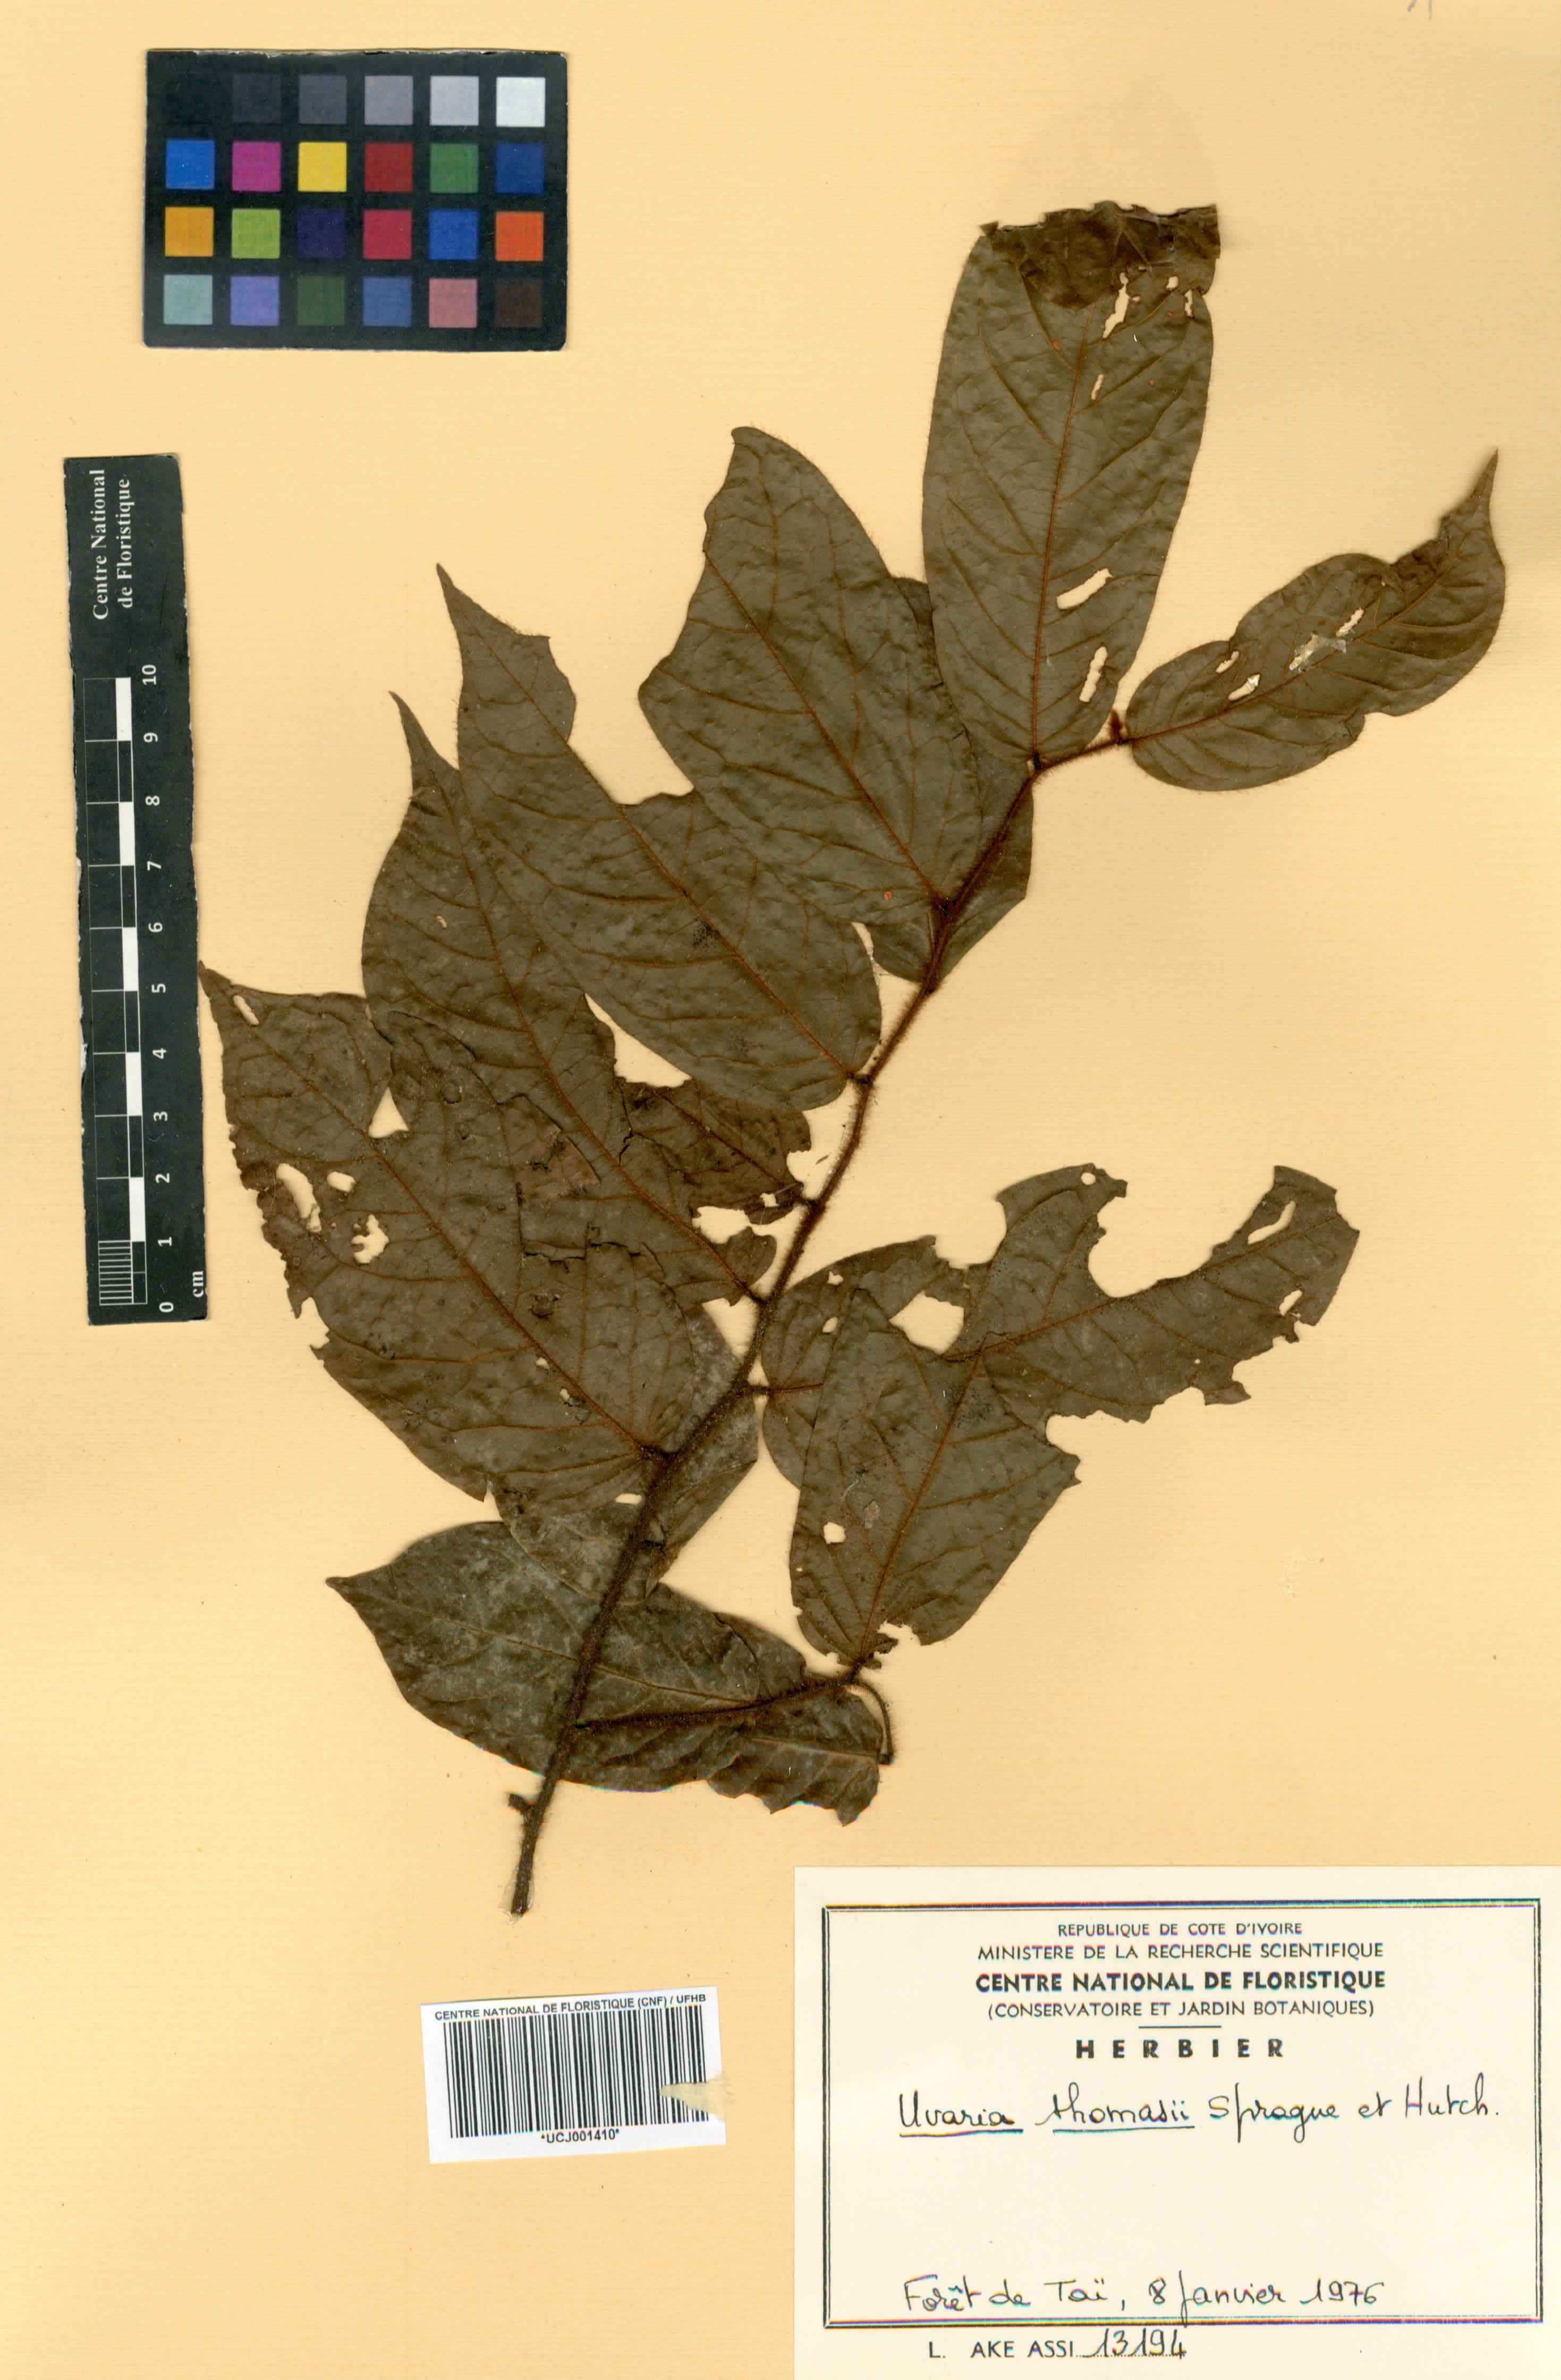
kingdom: Plantae
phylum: Tracheophyta
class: Magnoliopsida
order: Magnoliales
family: Annonaceae
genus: Uvaria
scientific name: Uvaria thomasii
